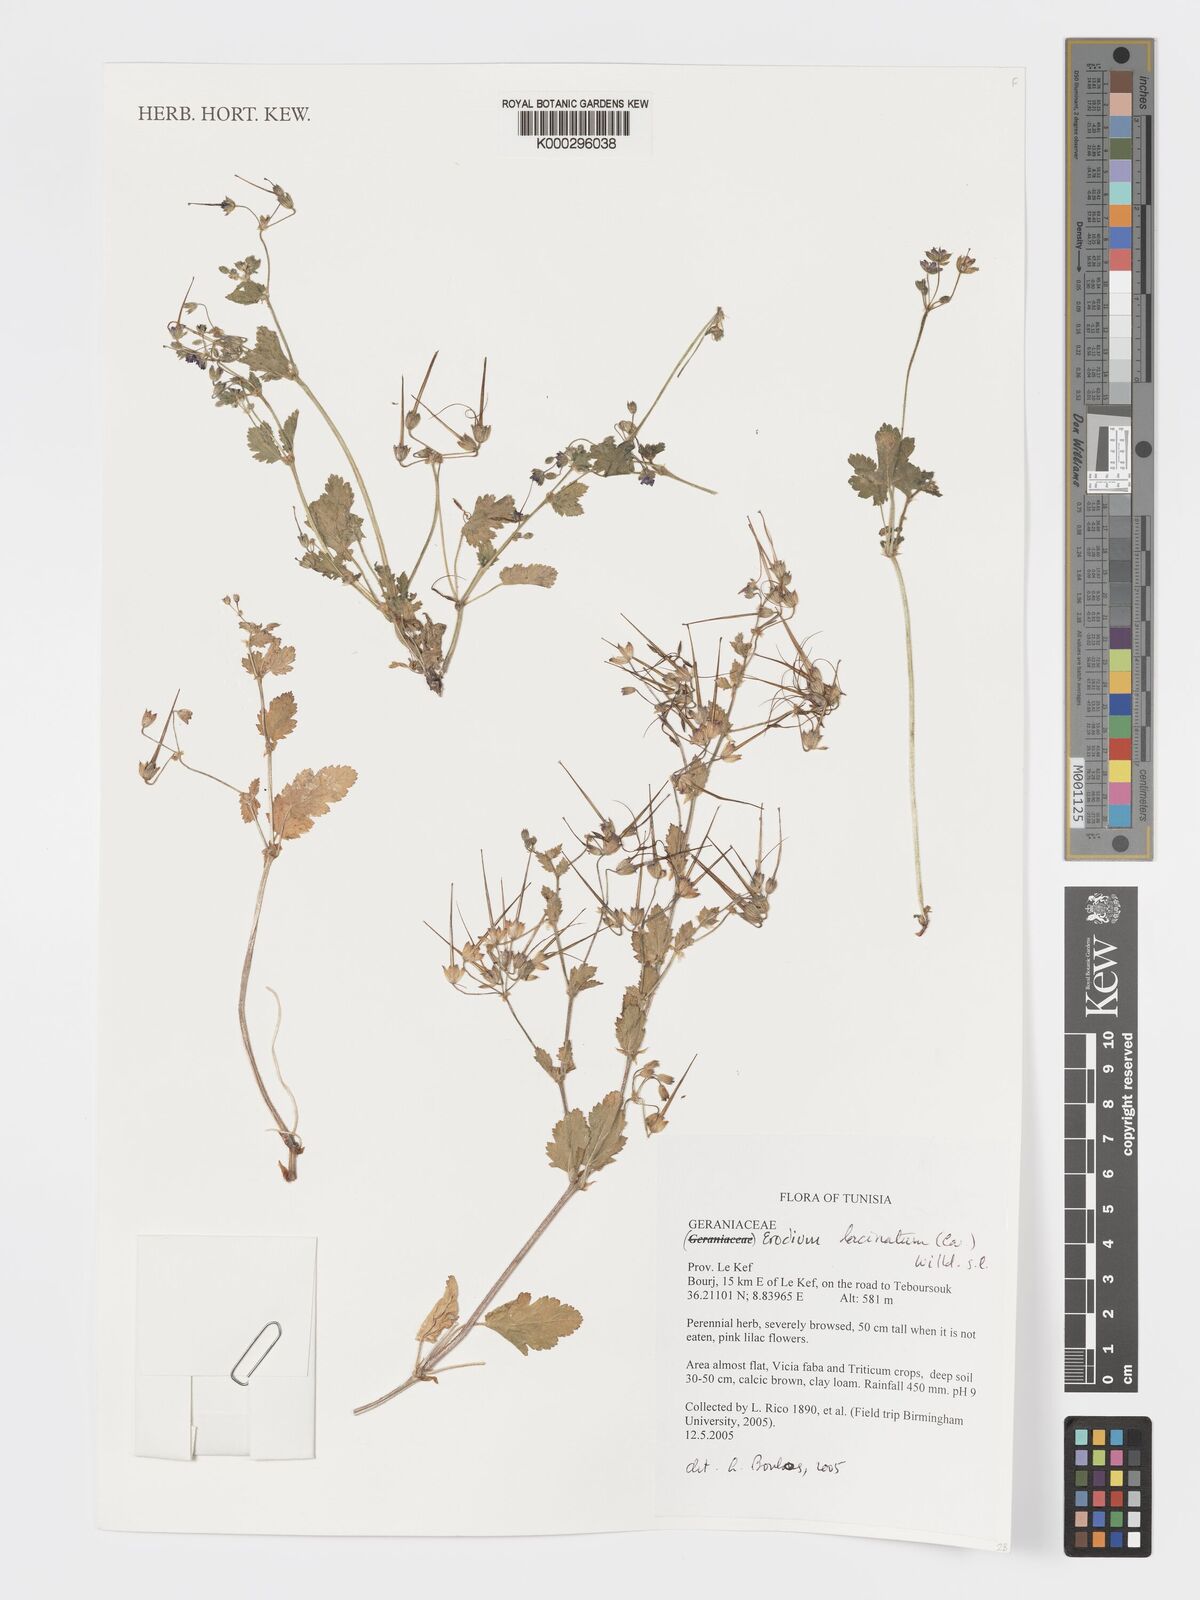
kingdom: Plantae
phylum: Tracheophyta
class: Magnoliopsida
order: Geraniales
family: Geraniaceae
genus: Erodium
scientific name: Erodium malacoides
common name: Soft stork's-bill
